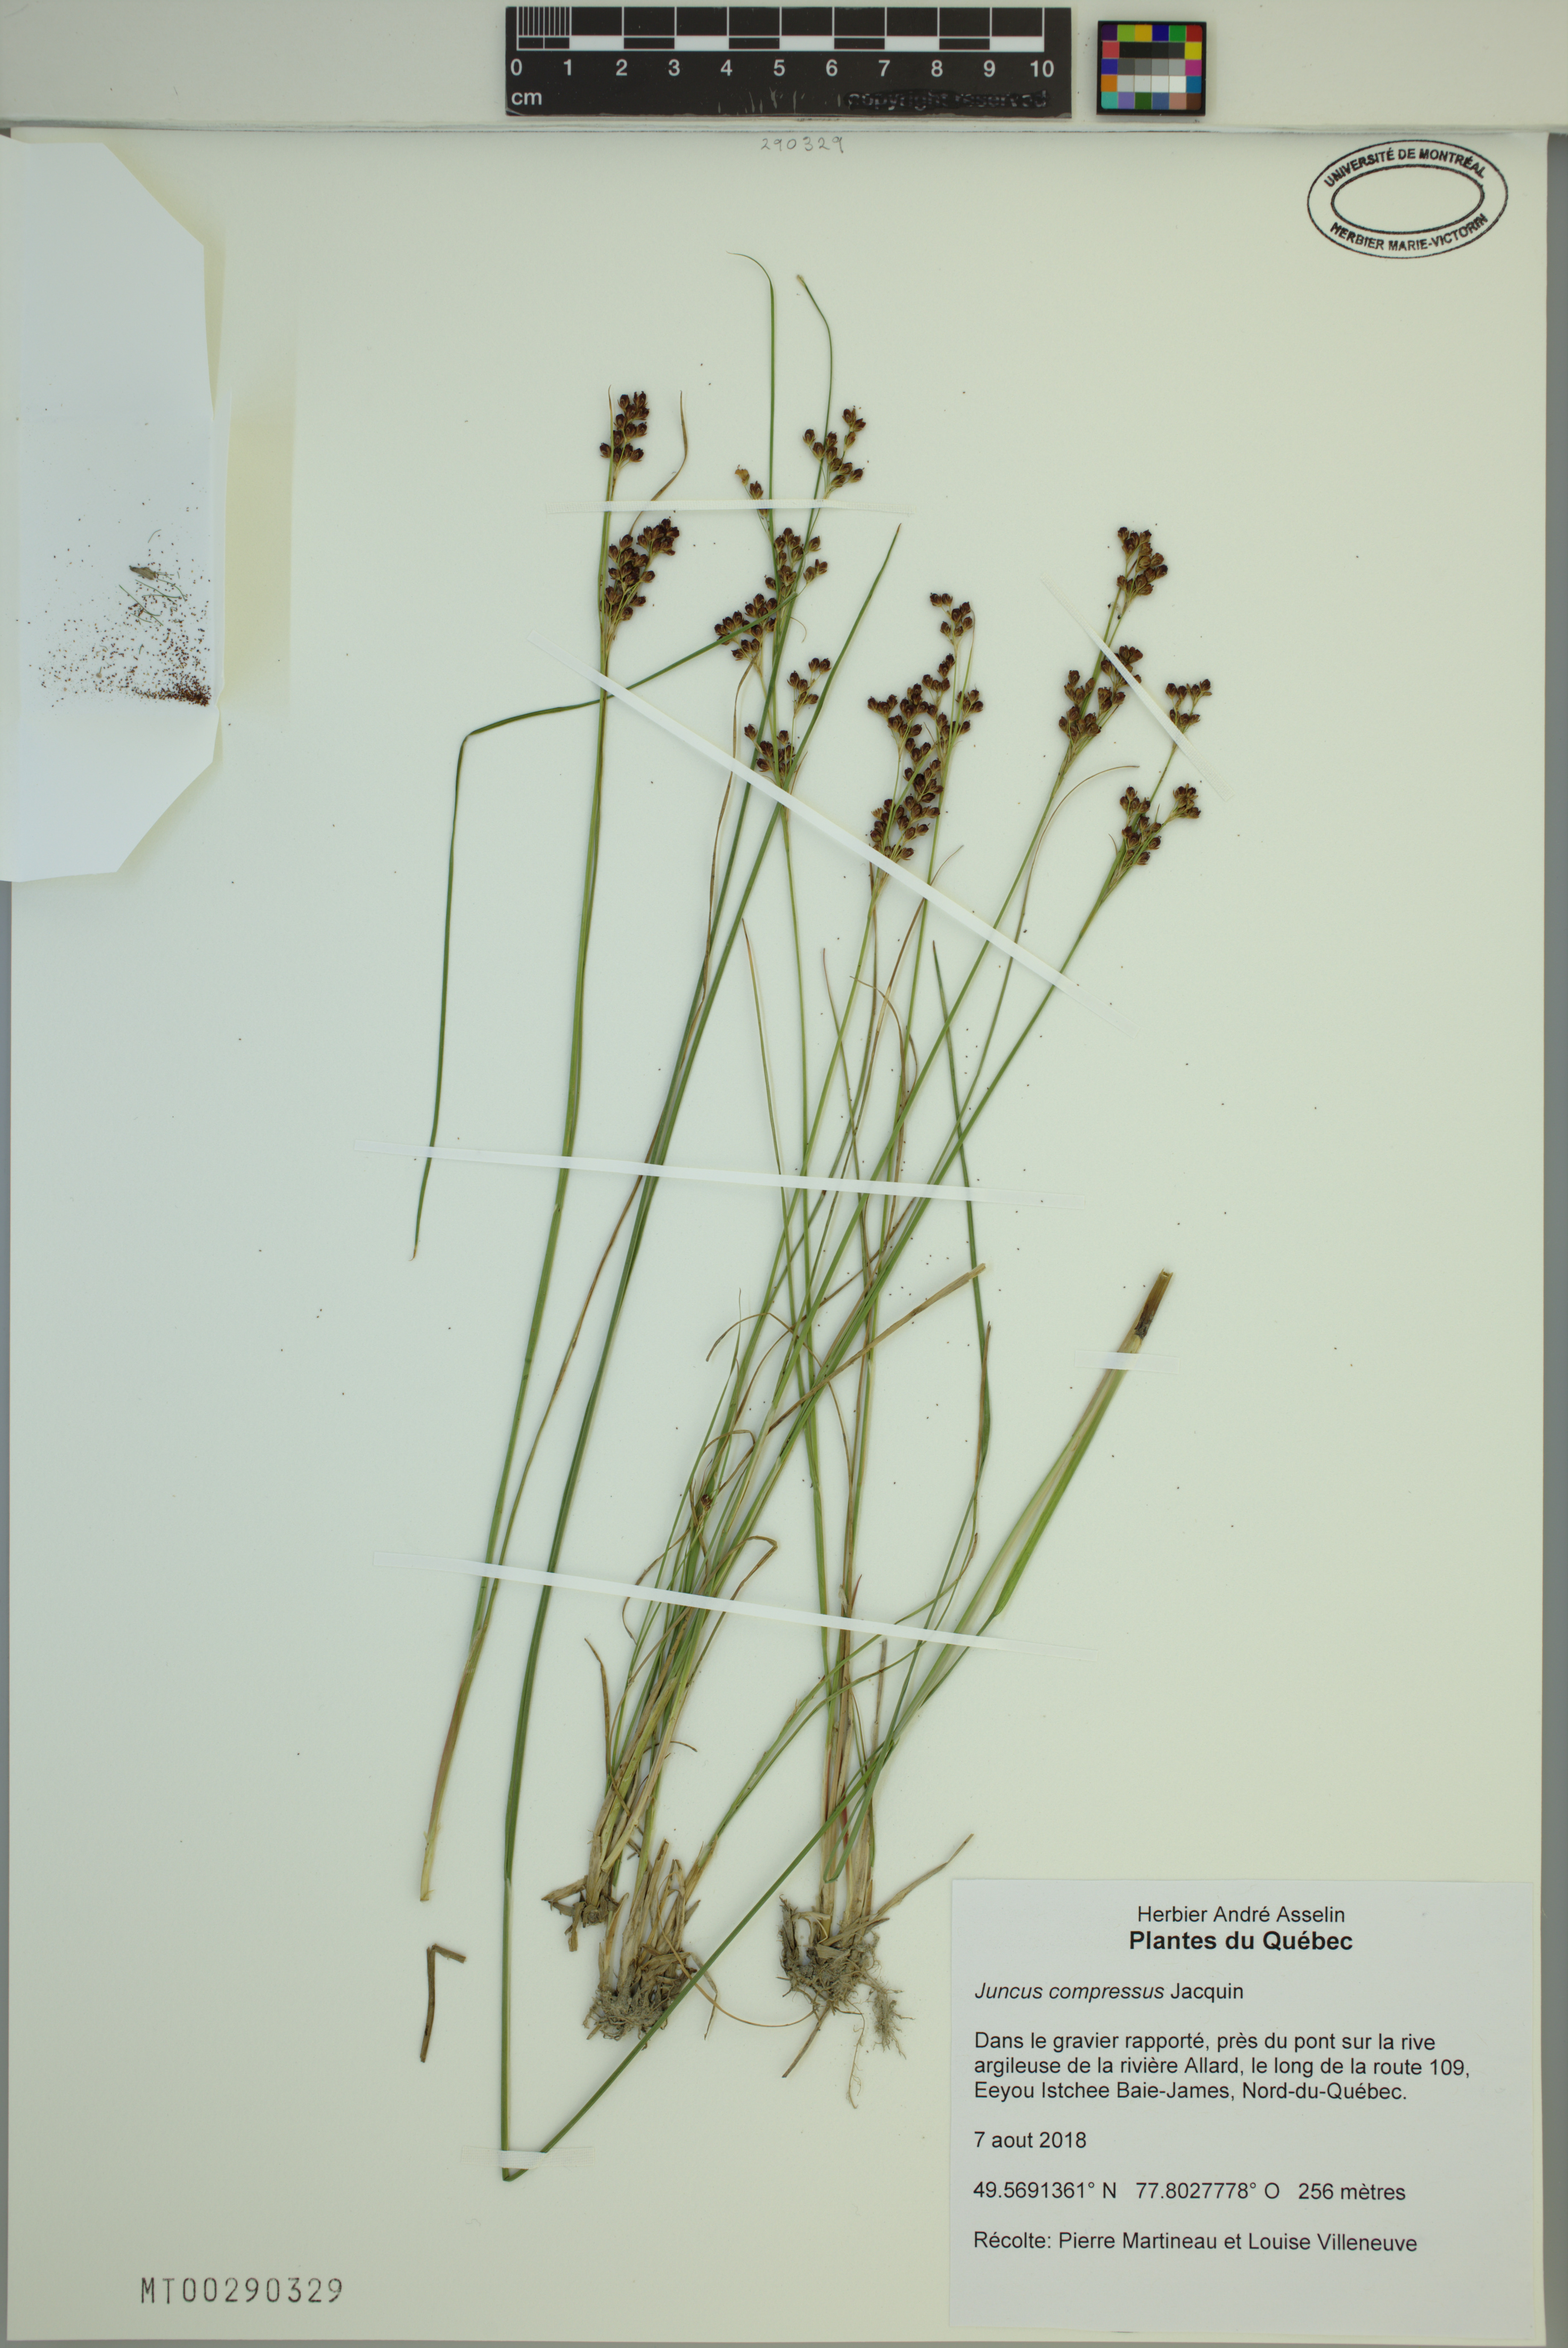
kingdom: Plantae
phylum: Tracheophyta
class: Liliopsida
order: Poales
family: Juncaceae
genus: Juncus
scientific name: Juncus compressus
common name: Round-fruited rush
